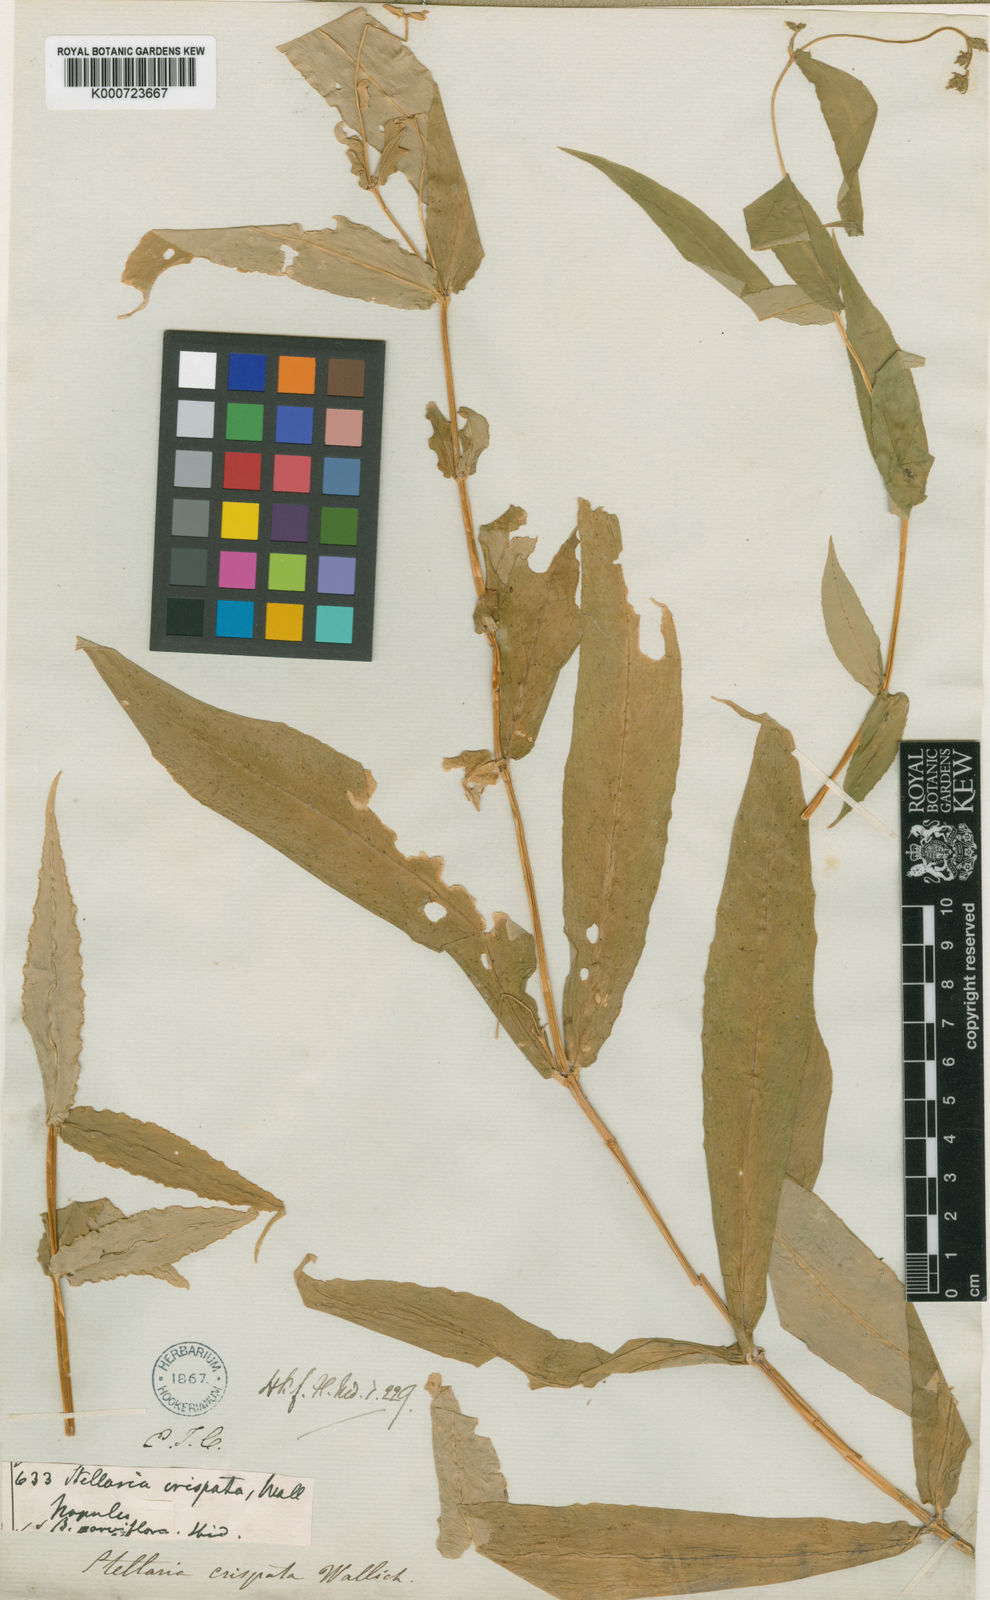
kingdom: Plantae
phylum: Tracheophyta
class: Magnoliopsida
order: Caryophyllales
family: Caryophyllaceae
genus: Schizotechium
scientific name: Schizotechium monospermum
